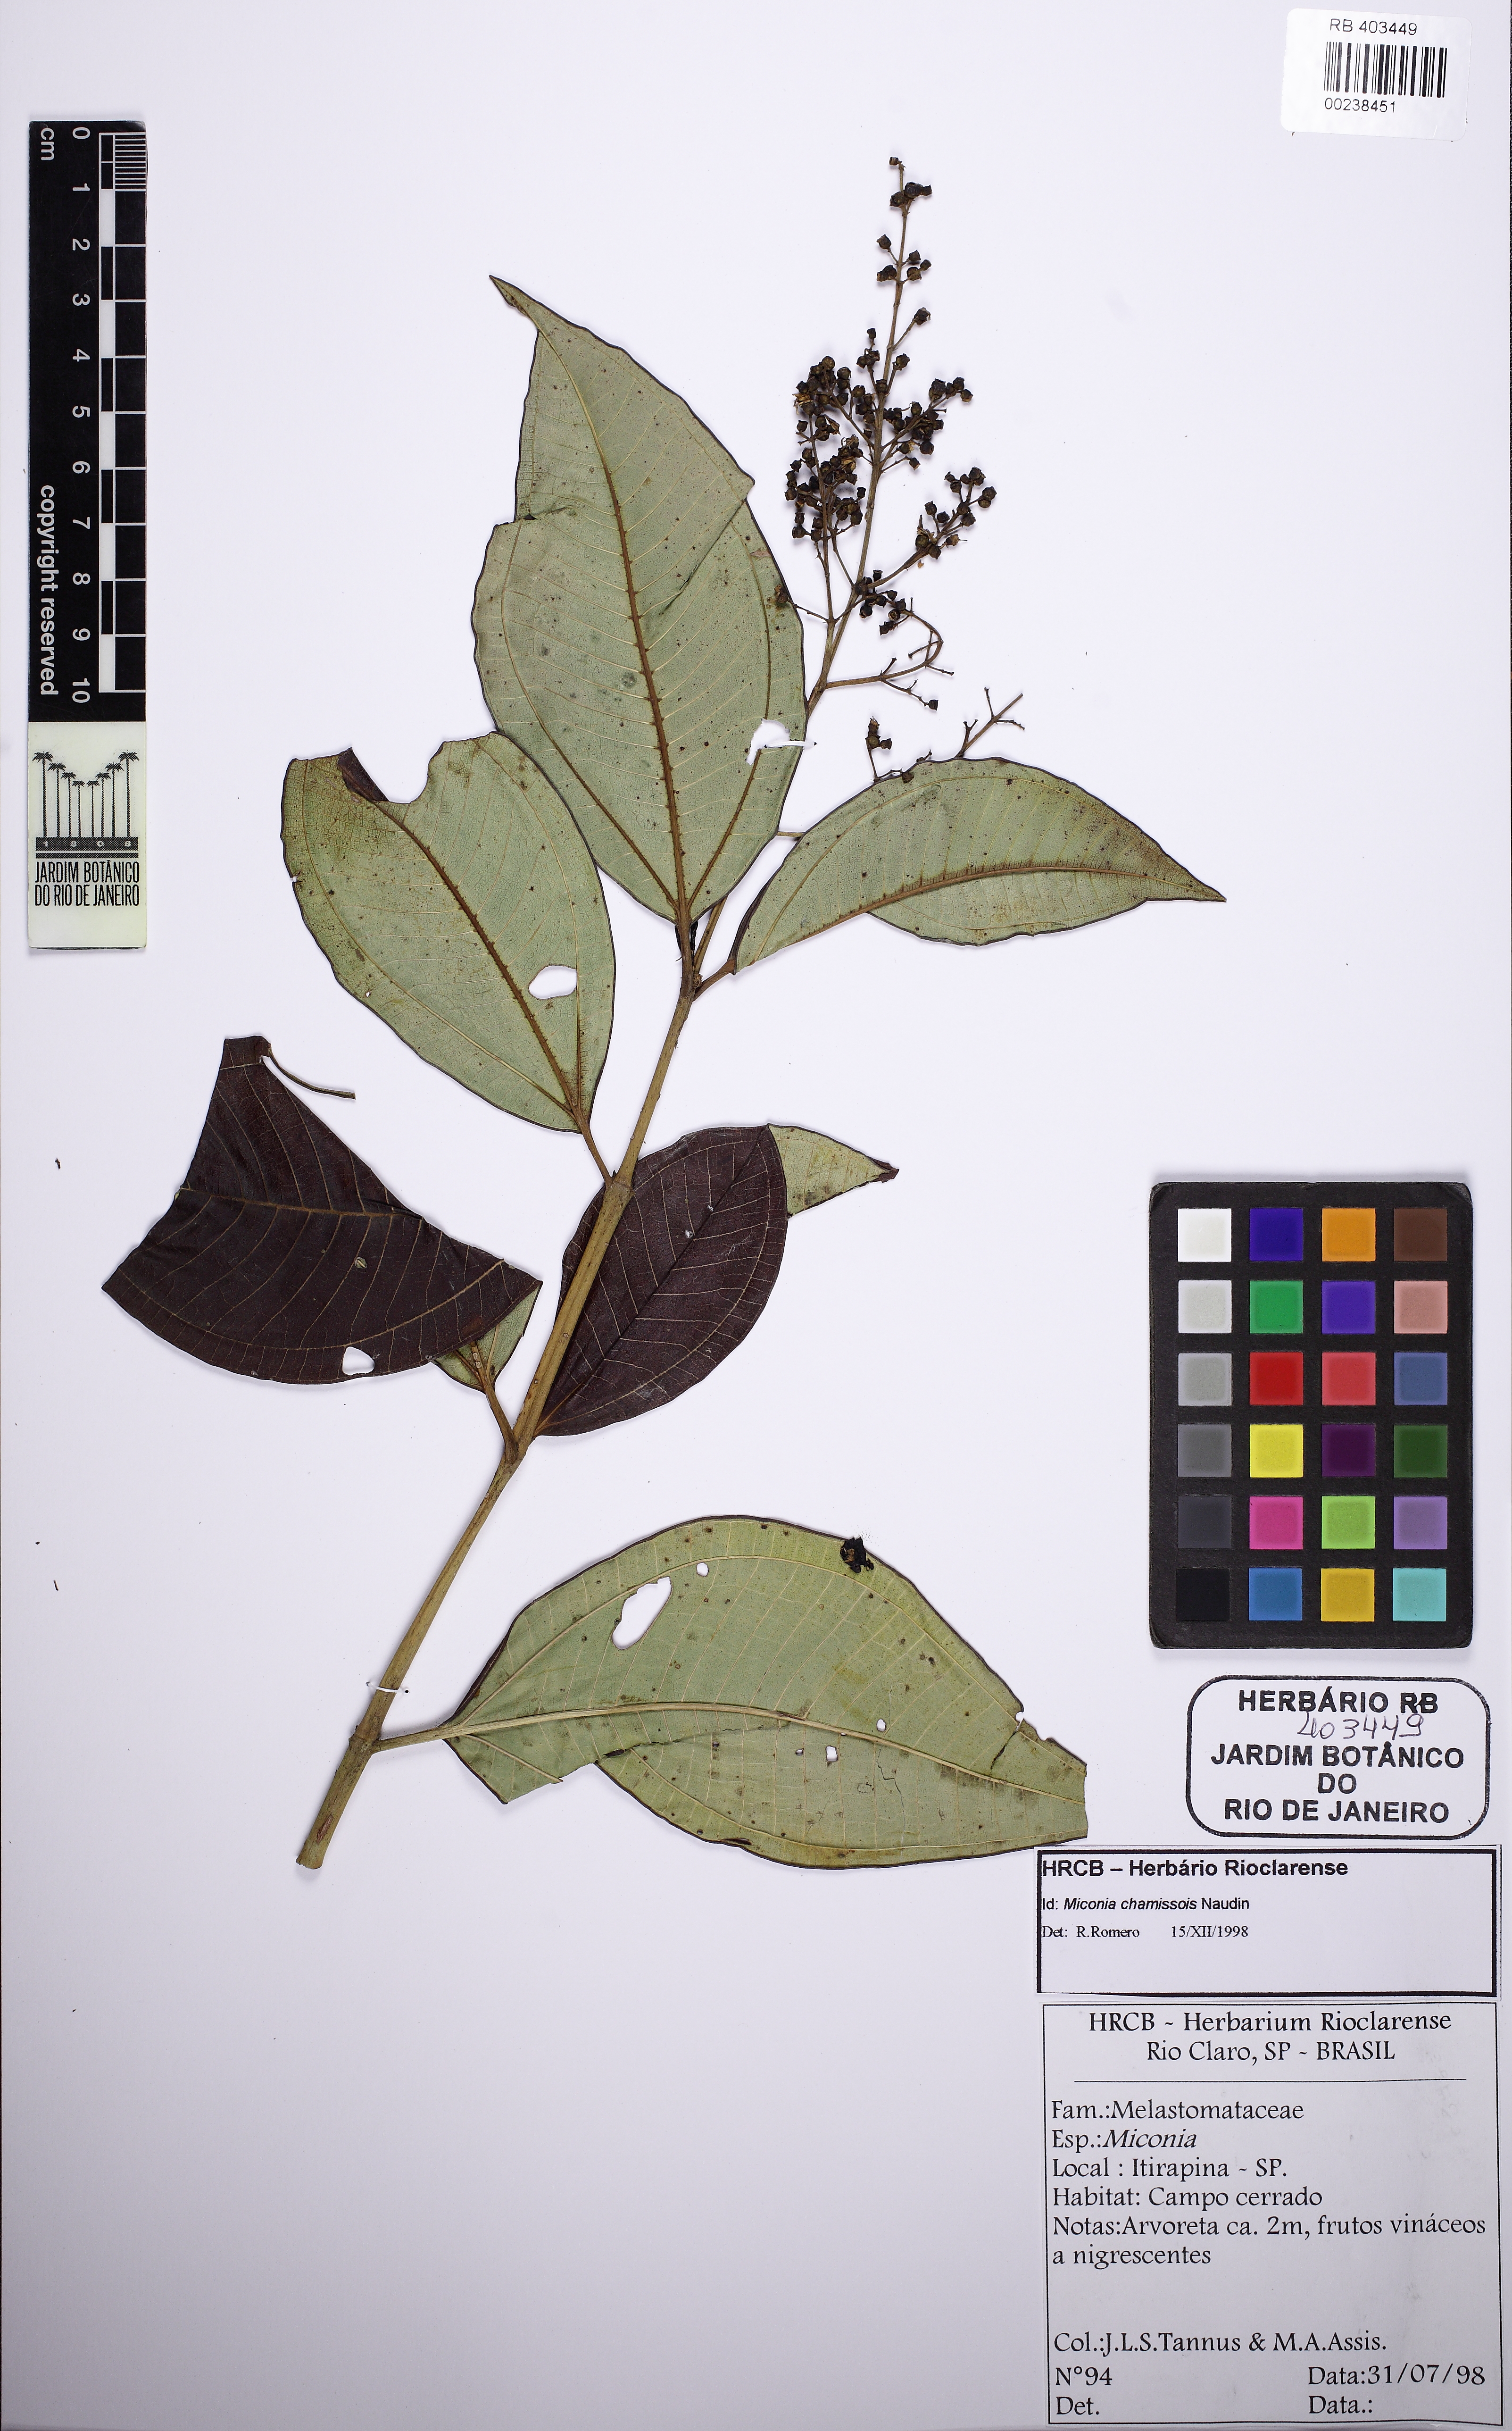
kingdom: Plantae
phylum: Tracheophyta
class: Magnoliopsida
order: Myrtales
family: Melastomataceae
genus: Miconia
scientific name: Miconia chamissois
